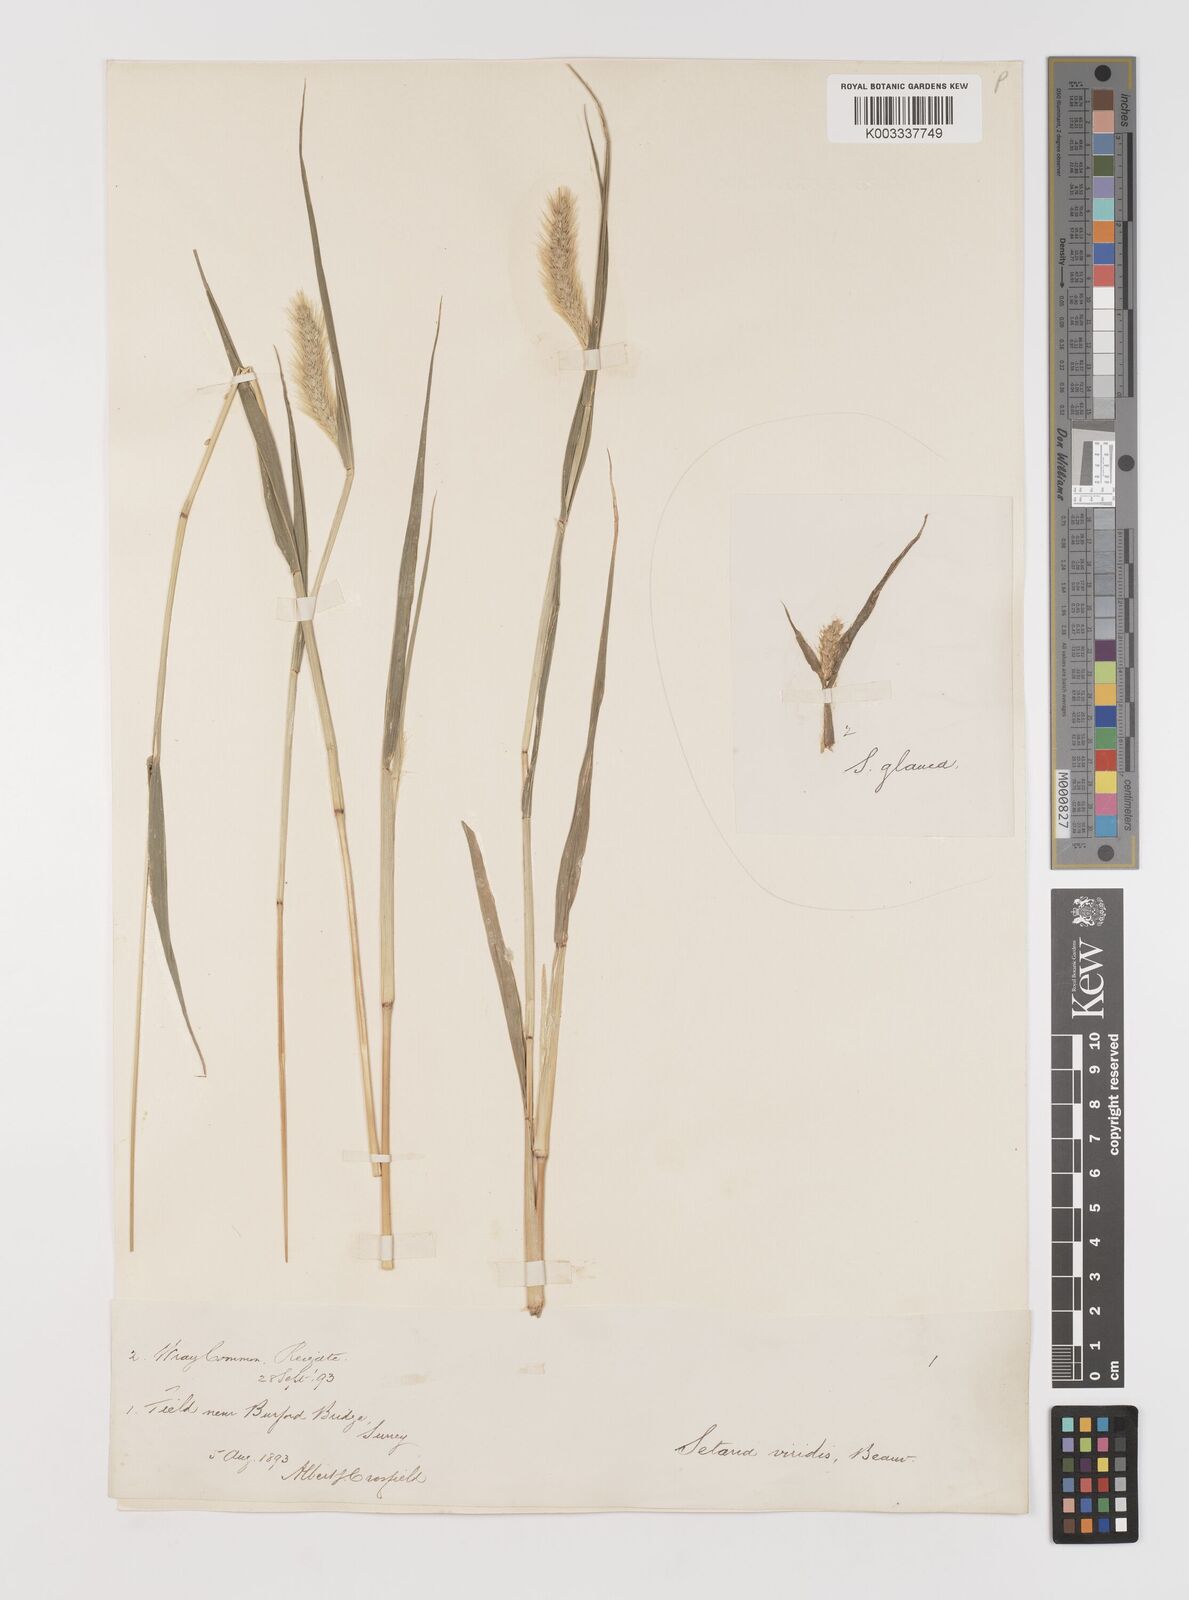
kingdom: Plantae
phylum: Tracheophyta
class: Liliopsida
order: Poales
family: Poaceae
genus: Setaria
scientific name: Setaria viridis
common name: Green bristlegrass
